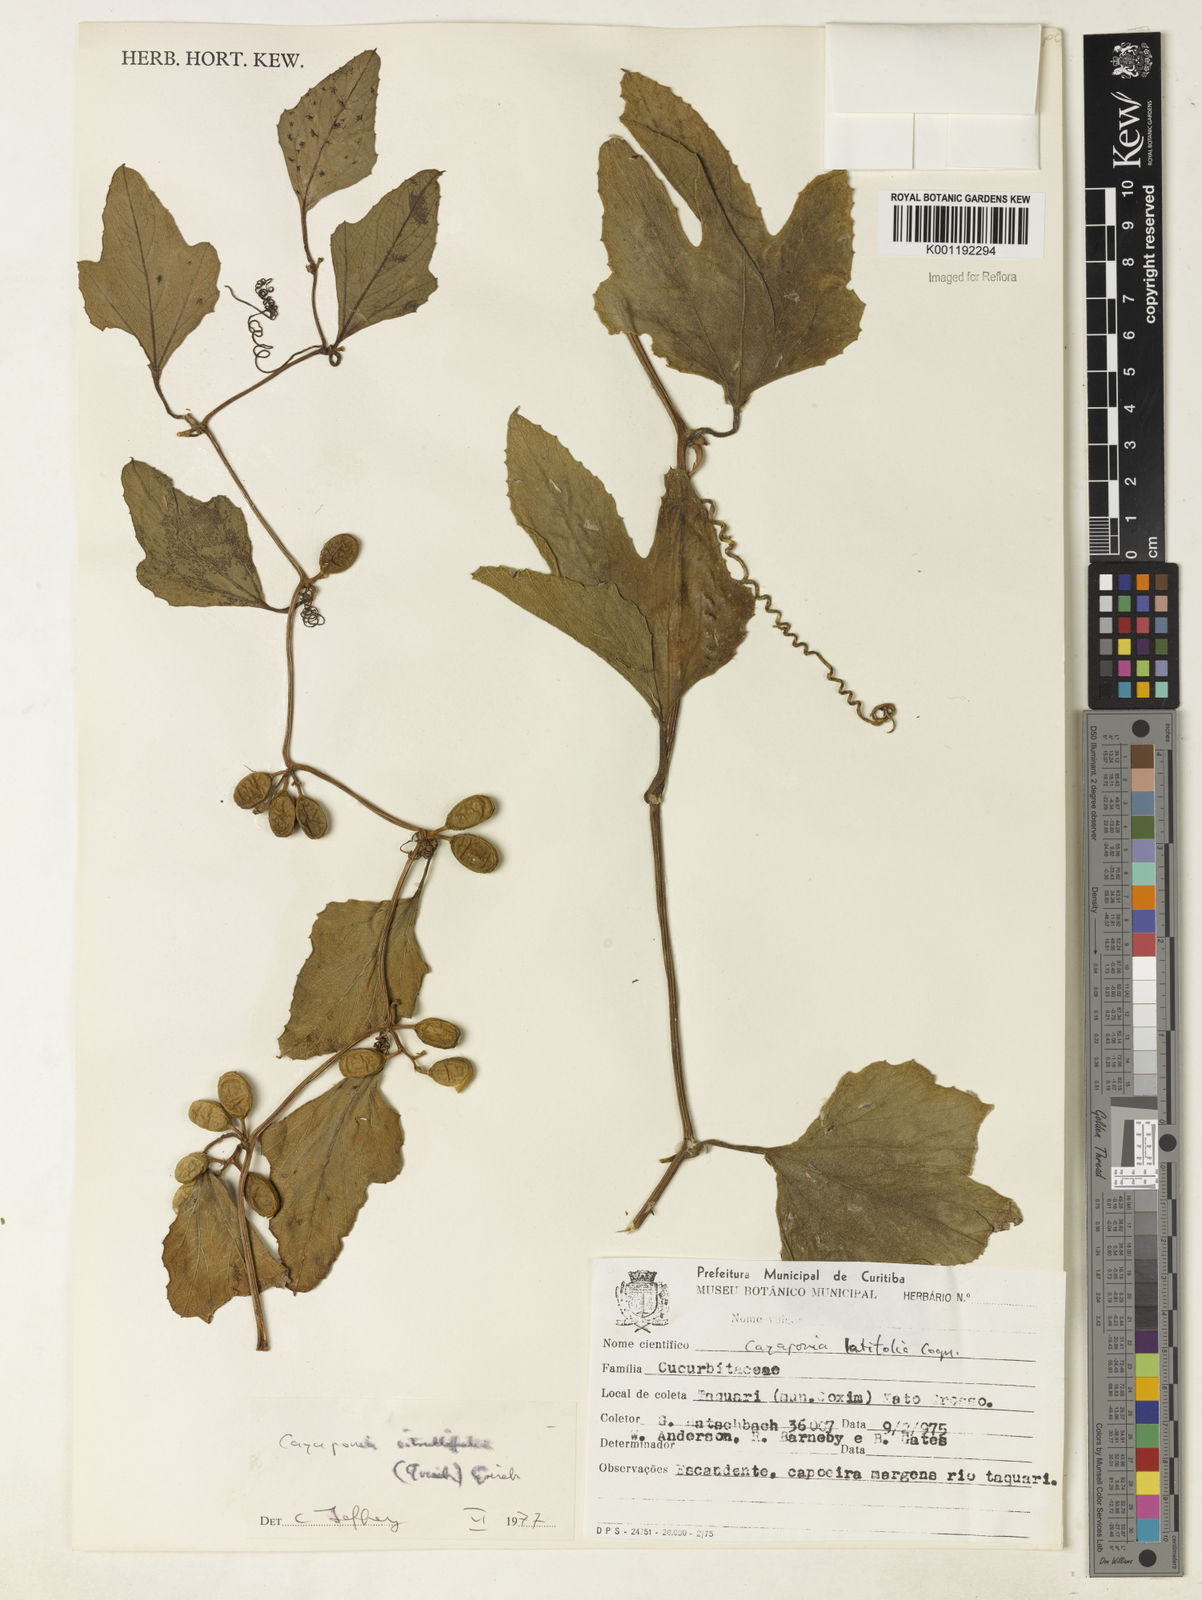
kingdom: Plantae
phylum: Tracheophyta
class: Magnoliopsida
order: Cucurbitales
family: Cucurbitaceae
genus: Cayaponia
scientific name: Cayaponia
